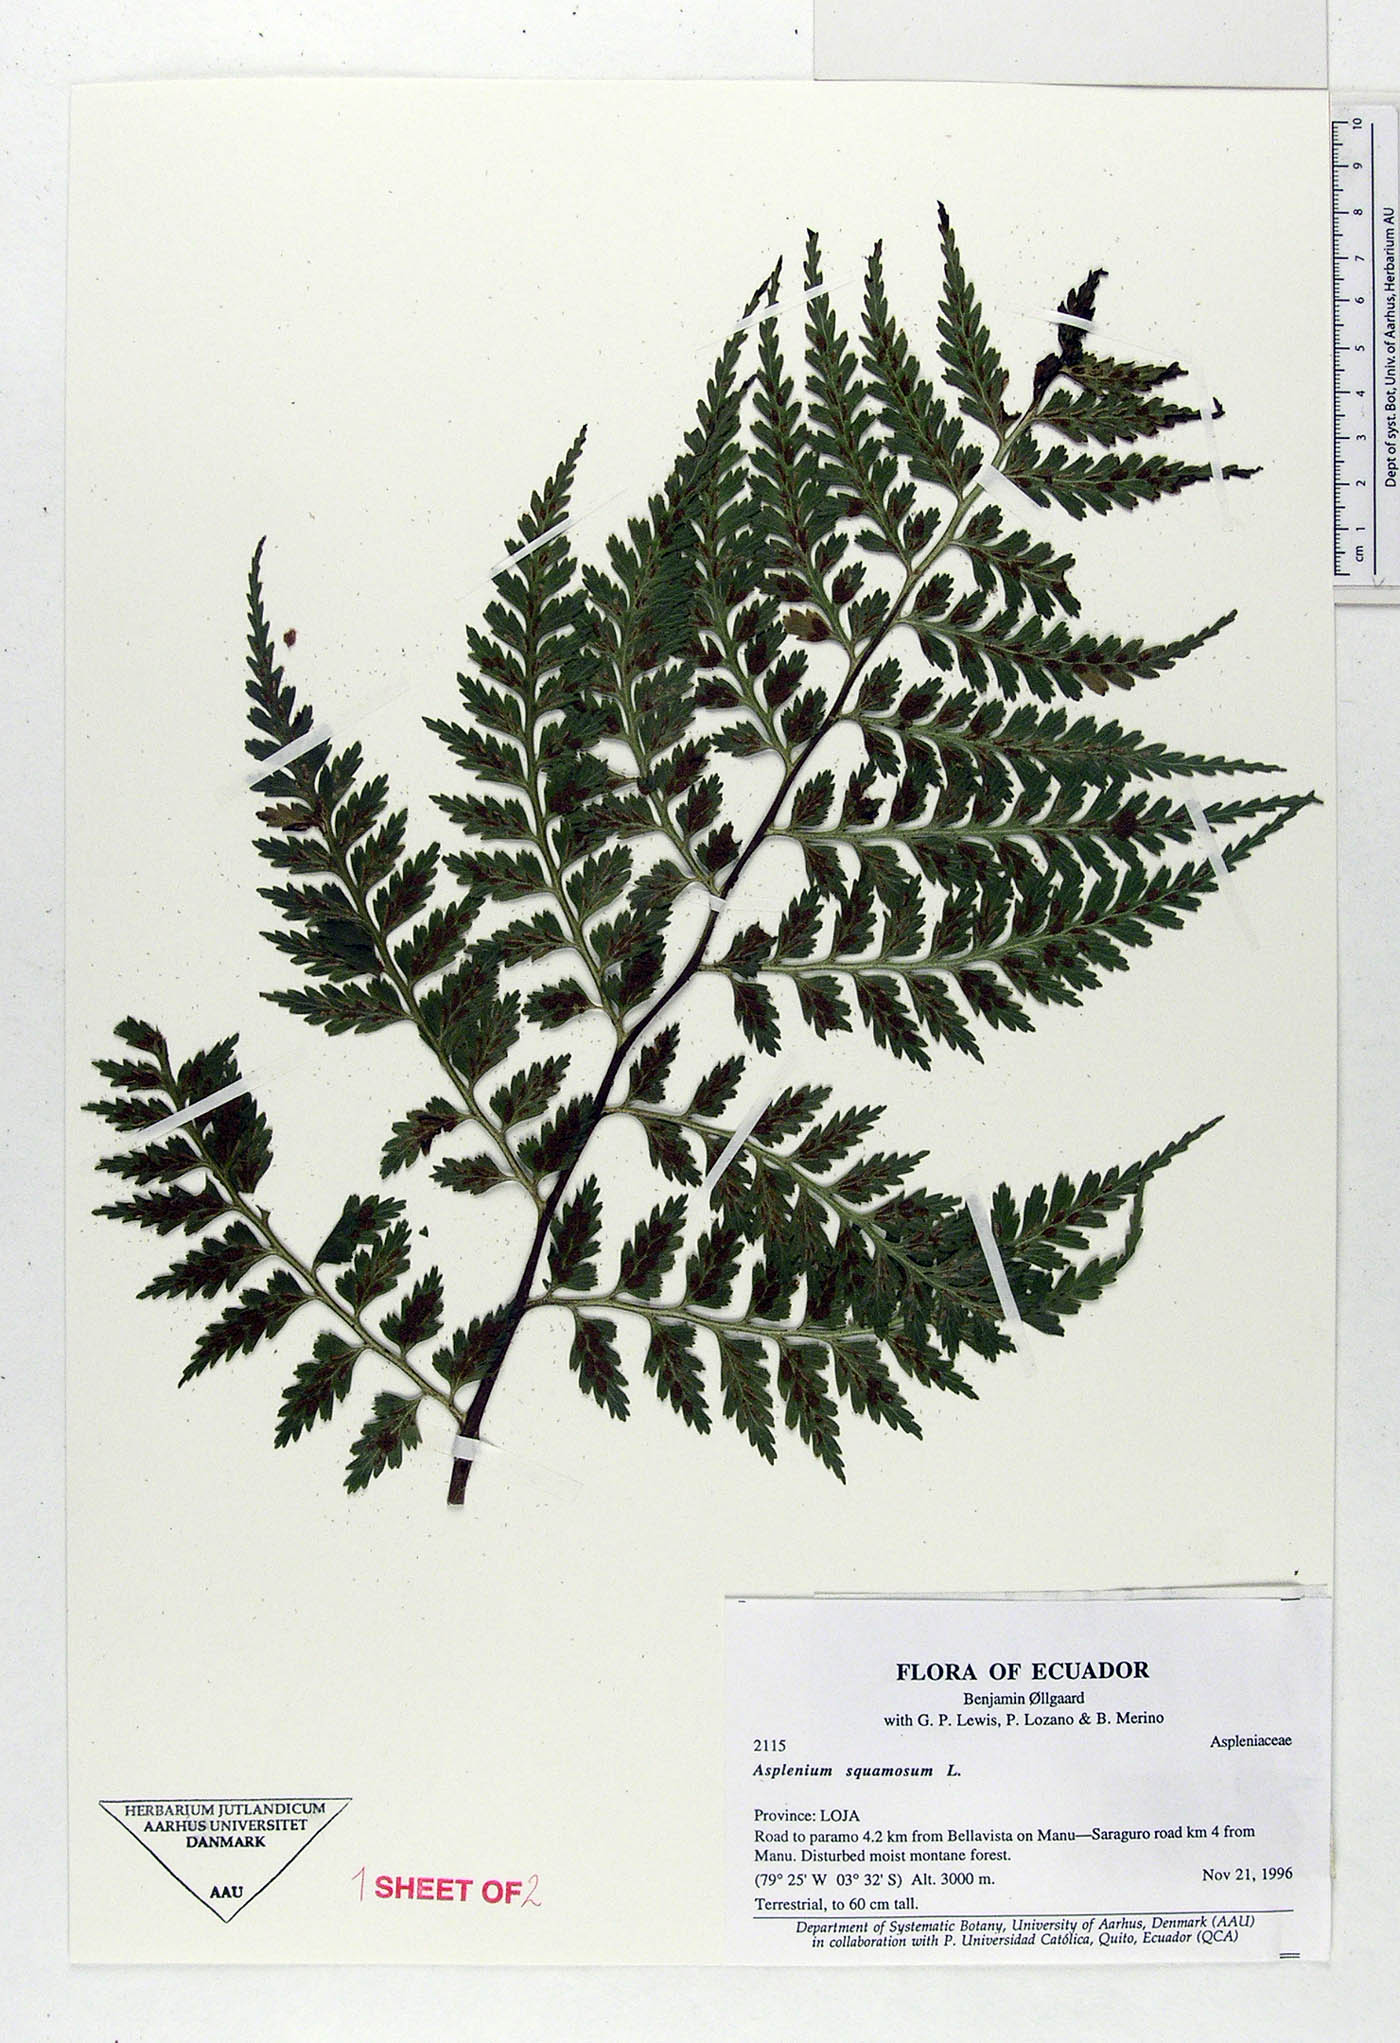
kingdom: Plantae
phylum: Tracheophyta
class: Polypodiopsida
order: Polypodiales
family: Aspleniaceae
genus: Asplenium
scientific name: Asplenium squamosum
